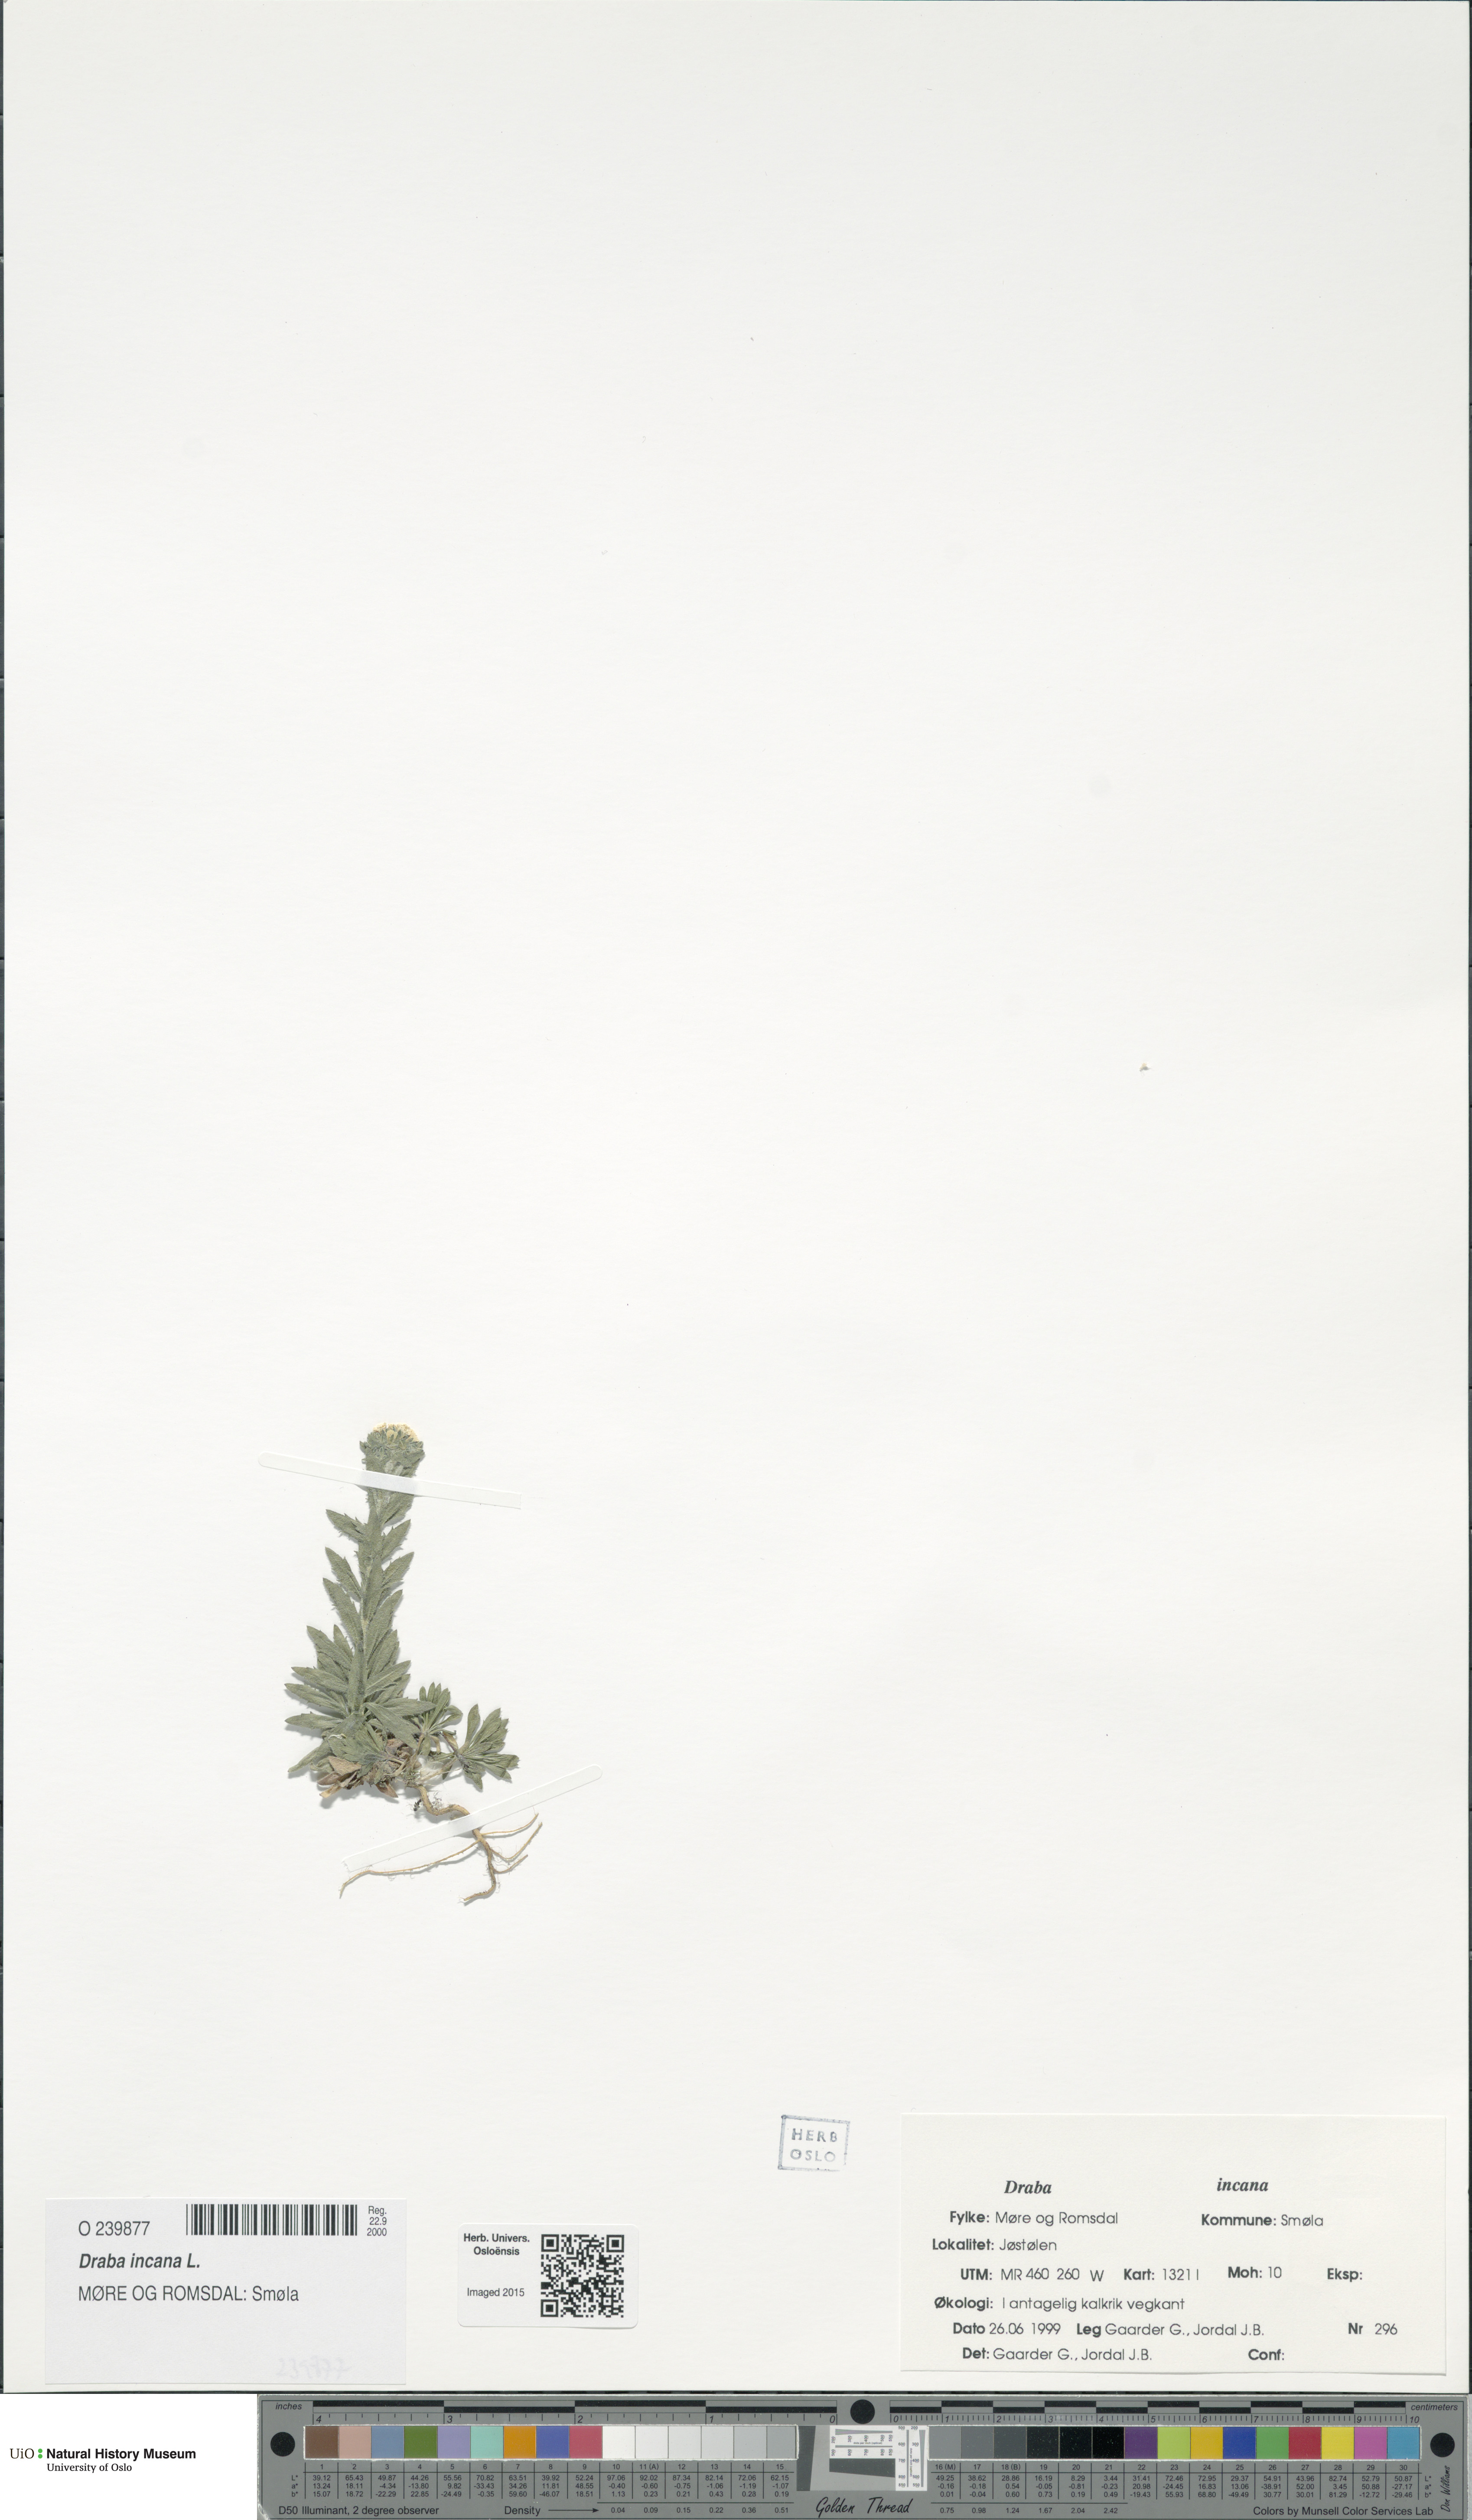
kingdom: Plantae
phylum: Tracheophyta
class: Magnoliopsida
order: Brassicales
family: Brassicaceae
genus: Draba
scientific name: Draba incana
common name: Hoary whitlow-grass
